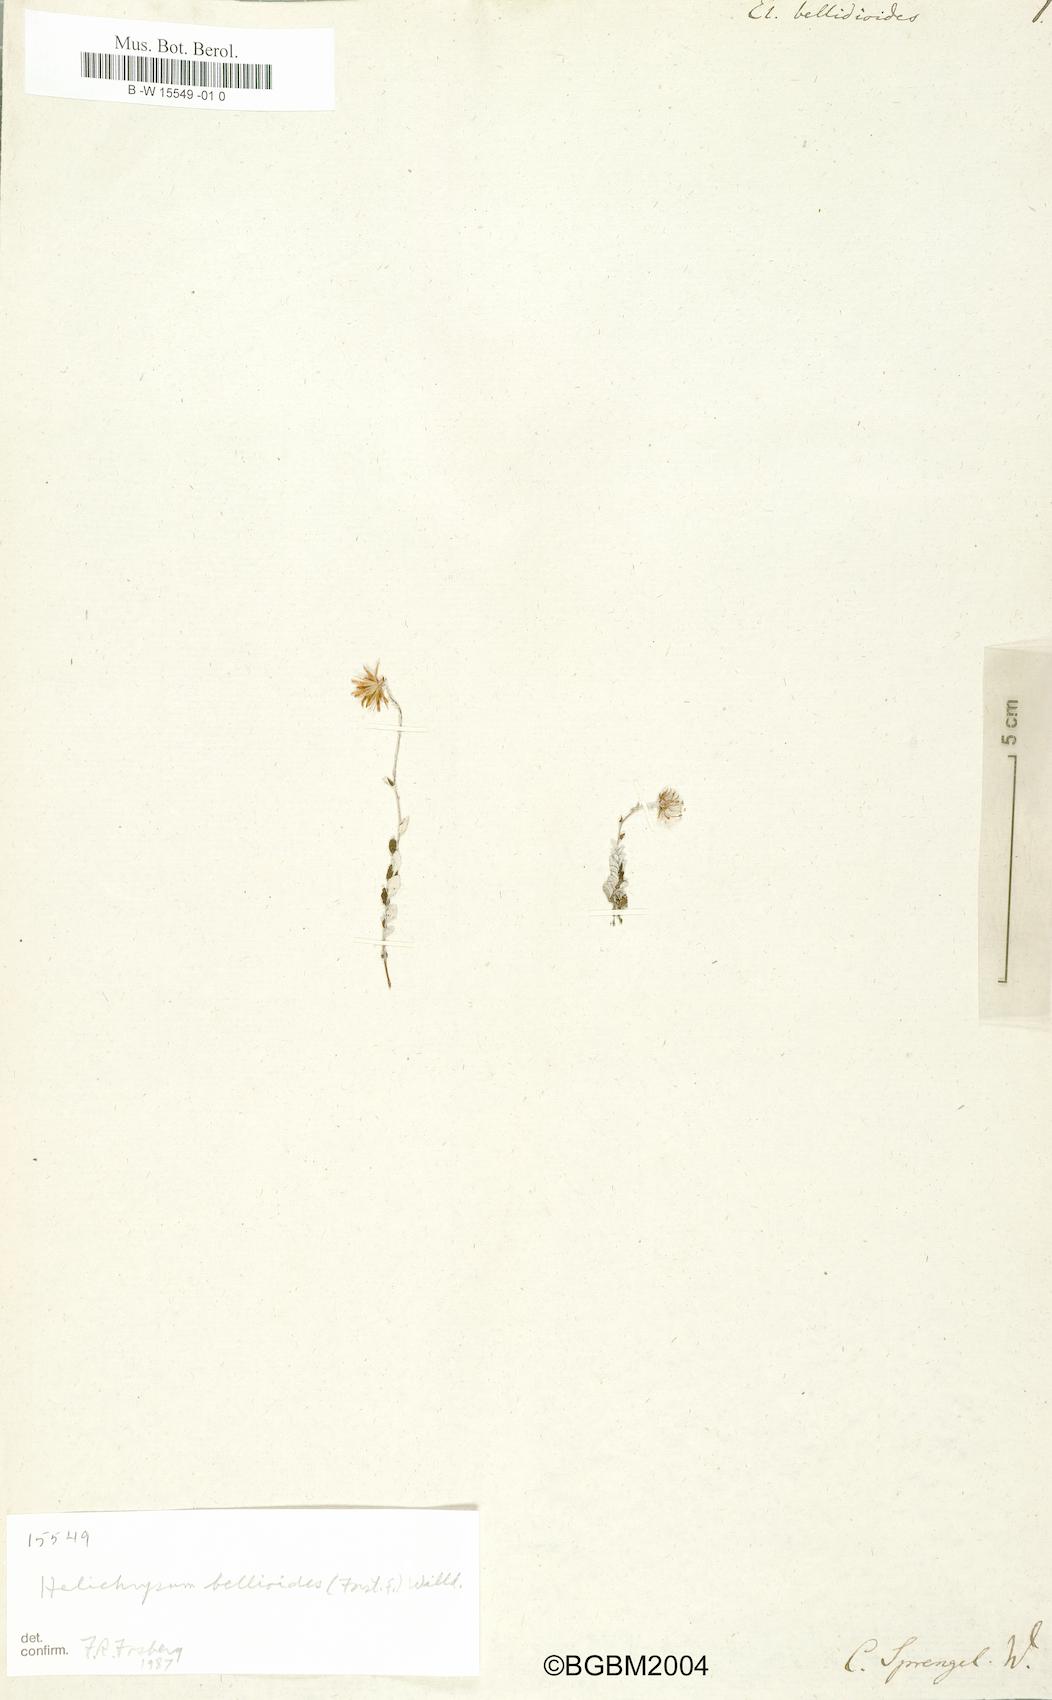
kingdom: Plantae
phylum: Tracheophyta
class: Magnoliopsida
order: Asterales
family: Asteraceae
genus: Helichrysum
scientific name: Helichrysum
